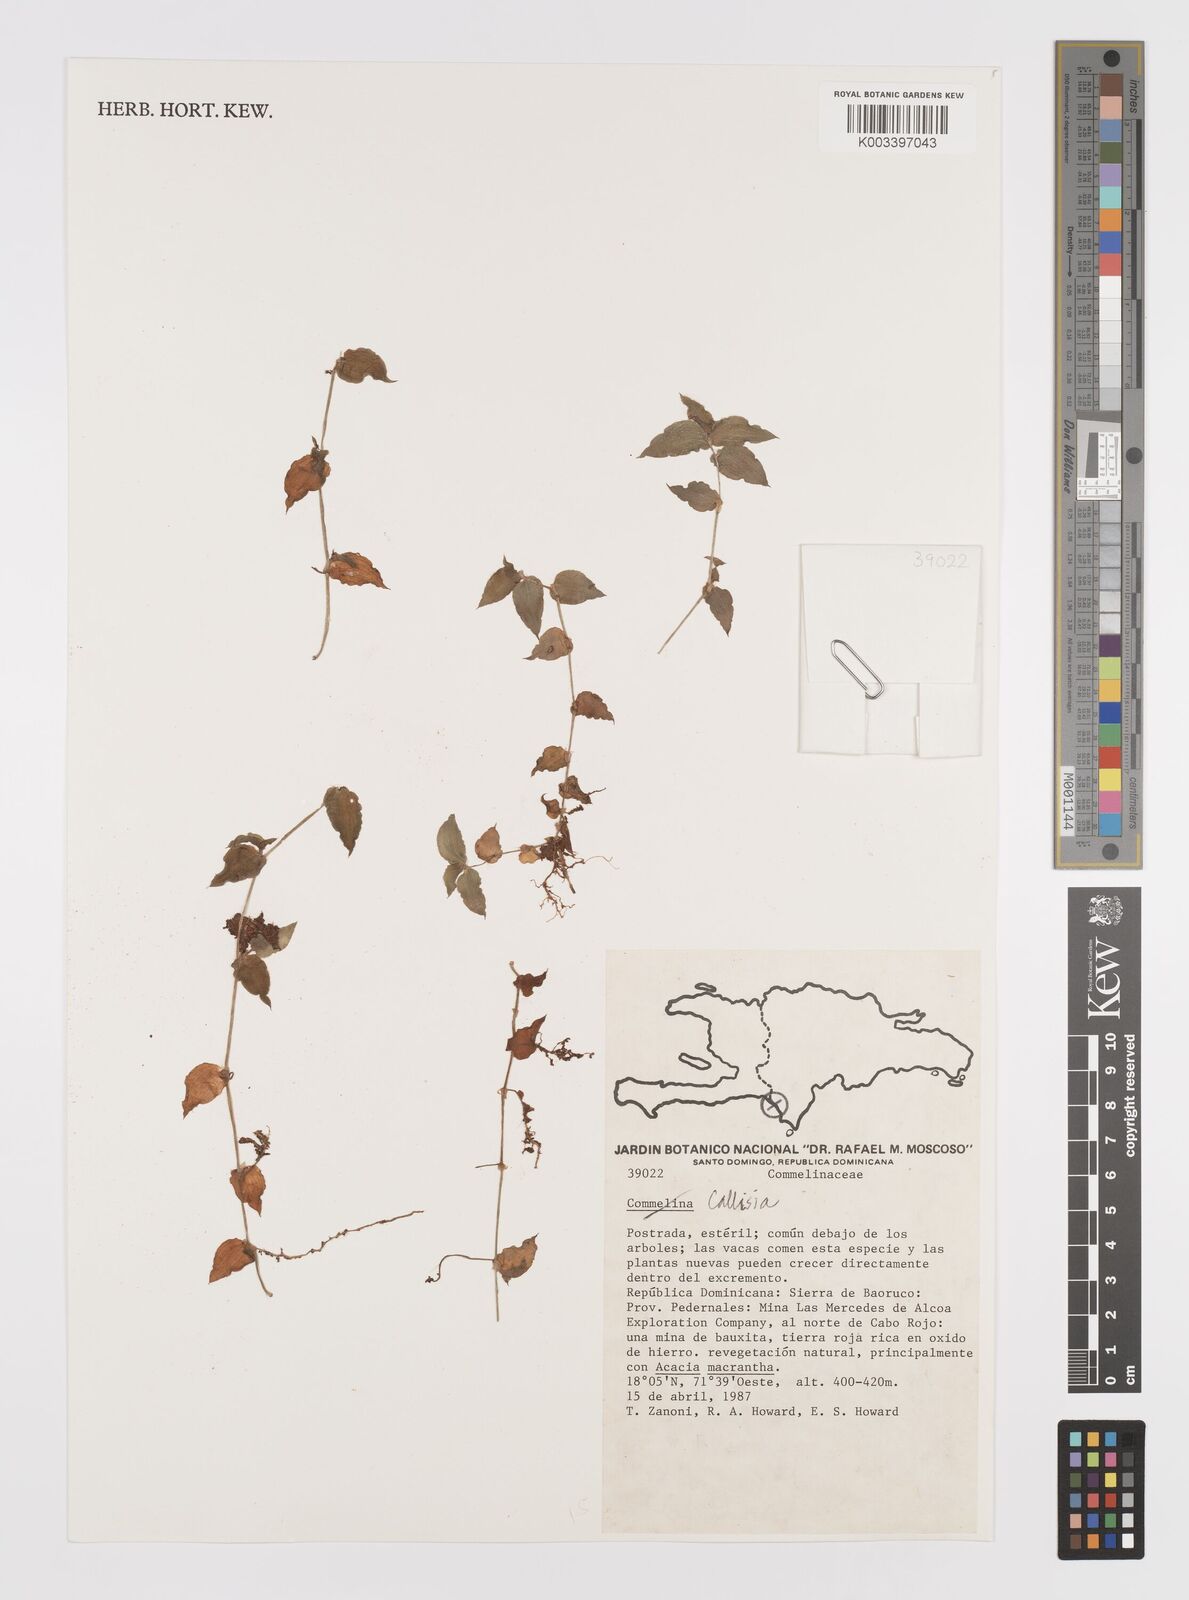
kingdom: Plantae
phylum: Tracheophyta
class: Liliopsida
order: Commelinales
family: Commelinaceae
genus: Callisia
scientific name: Callisia
